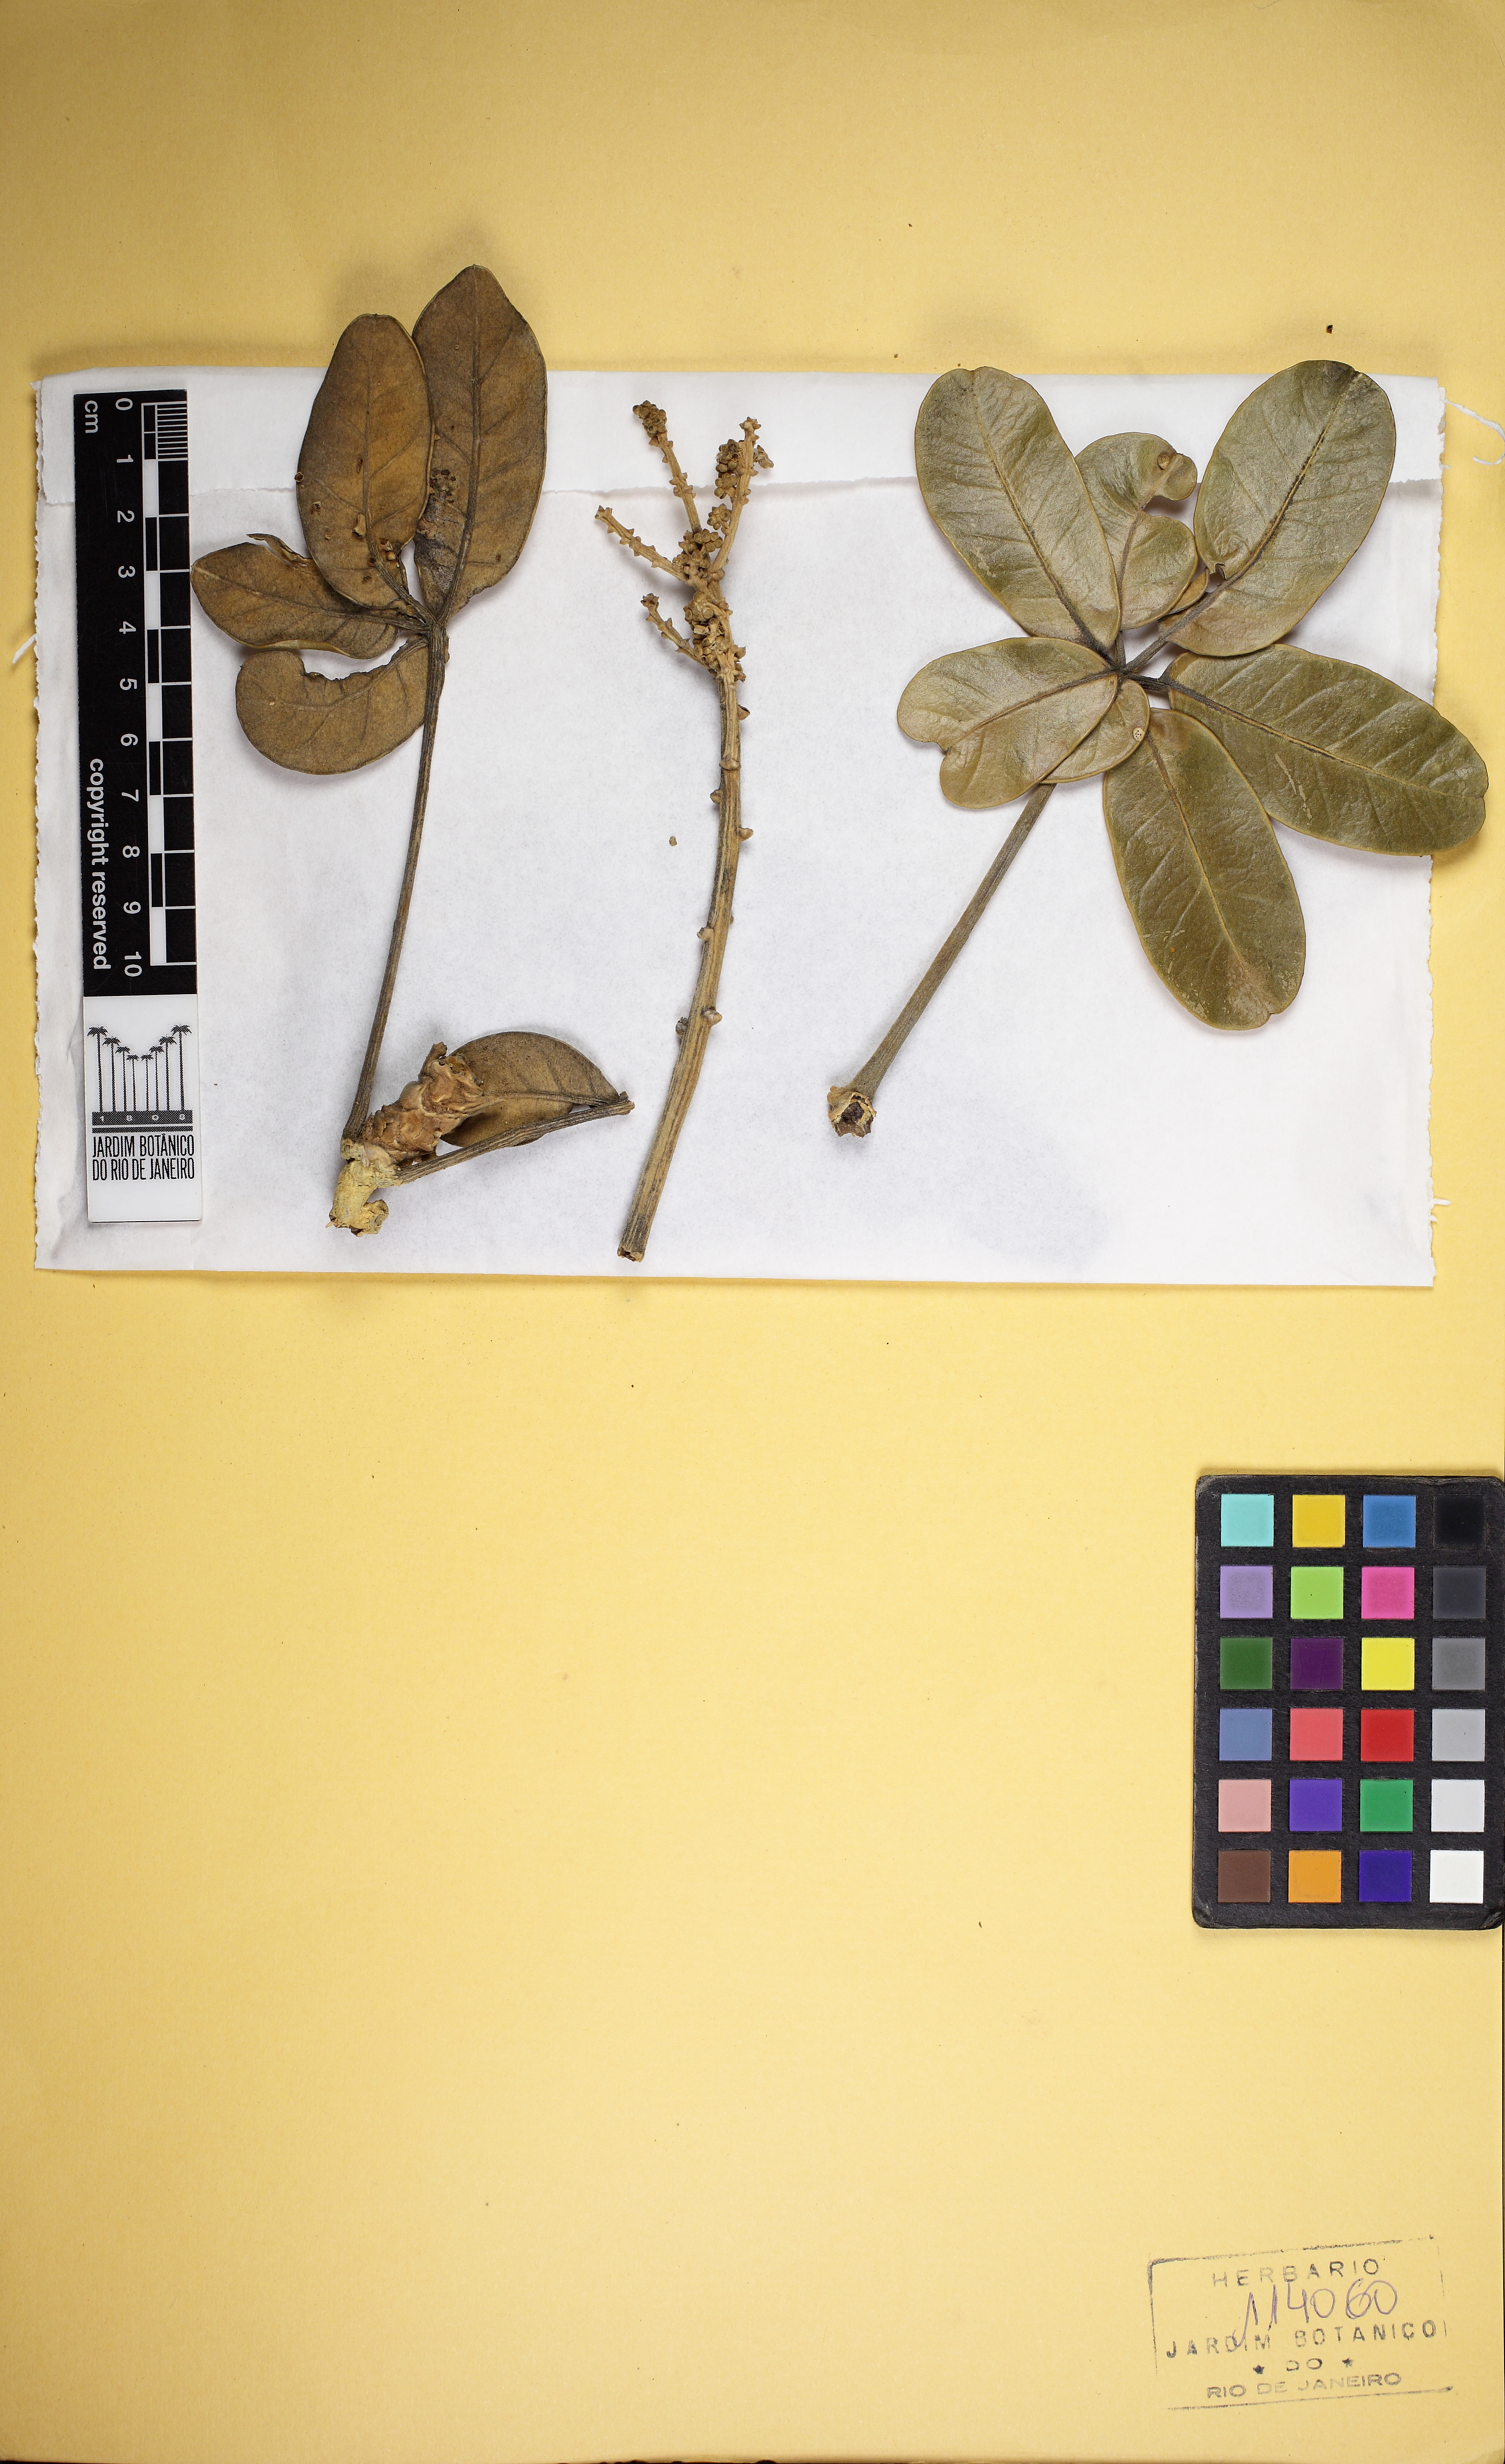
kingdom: Plantae
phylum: Tracheophyta
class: Magnoliopsida
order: Apiales
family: Araliaceae
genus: Didymopanax
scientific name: Didymopanax macrocarpus
